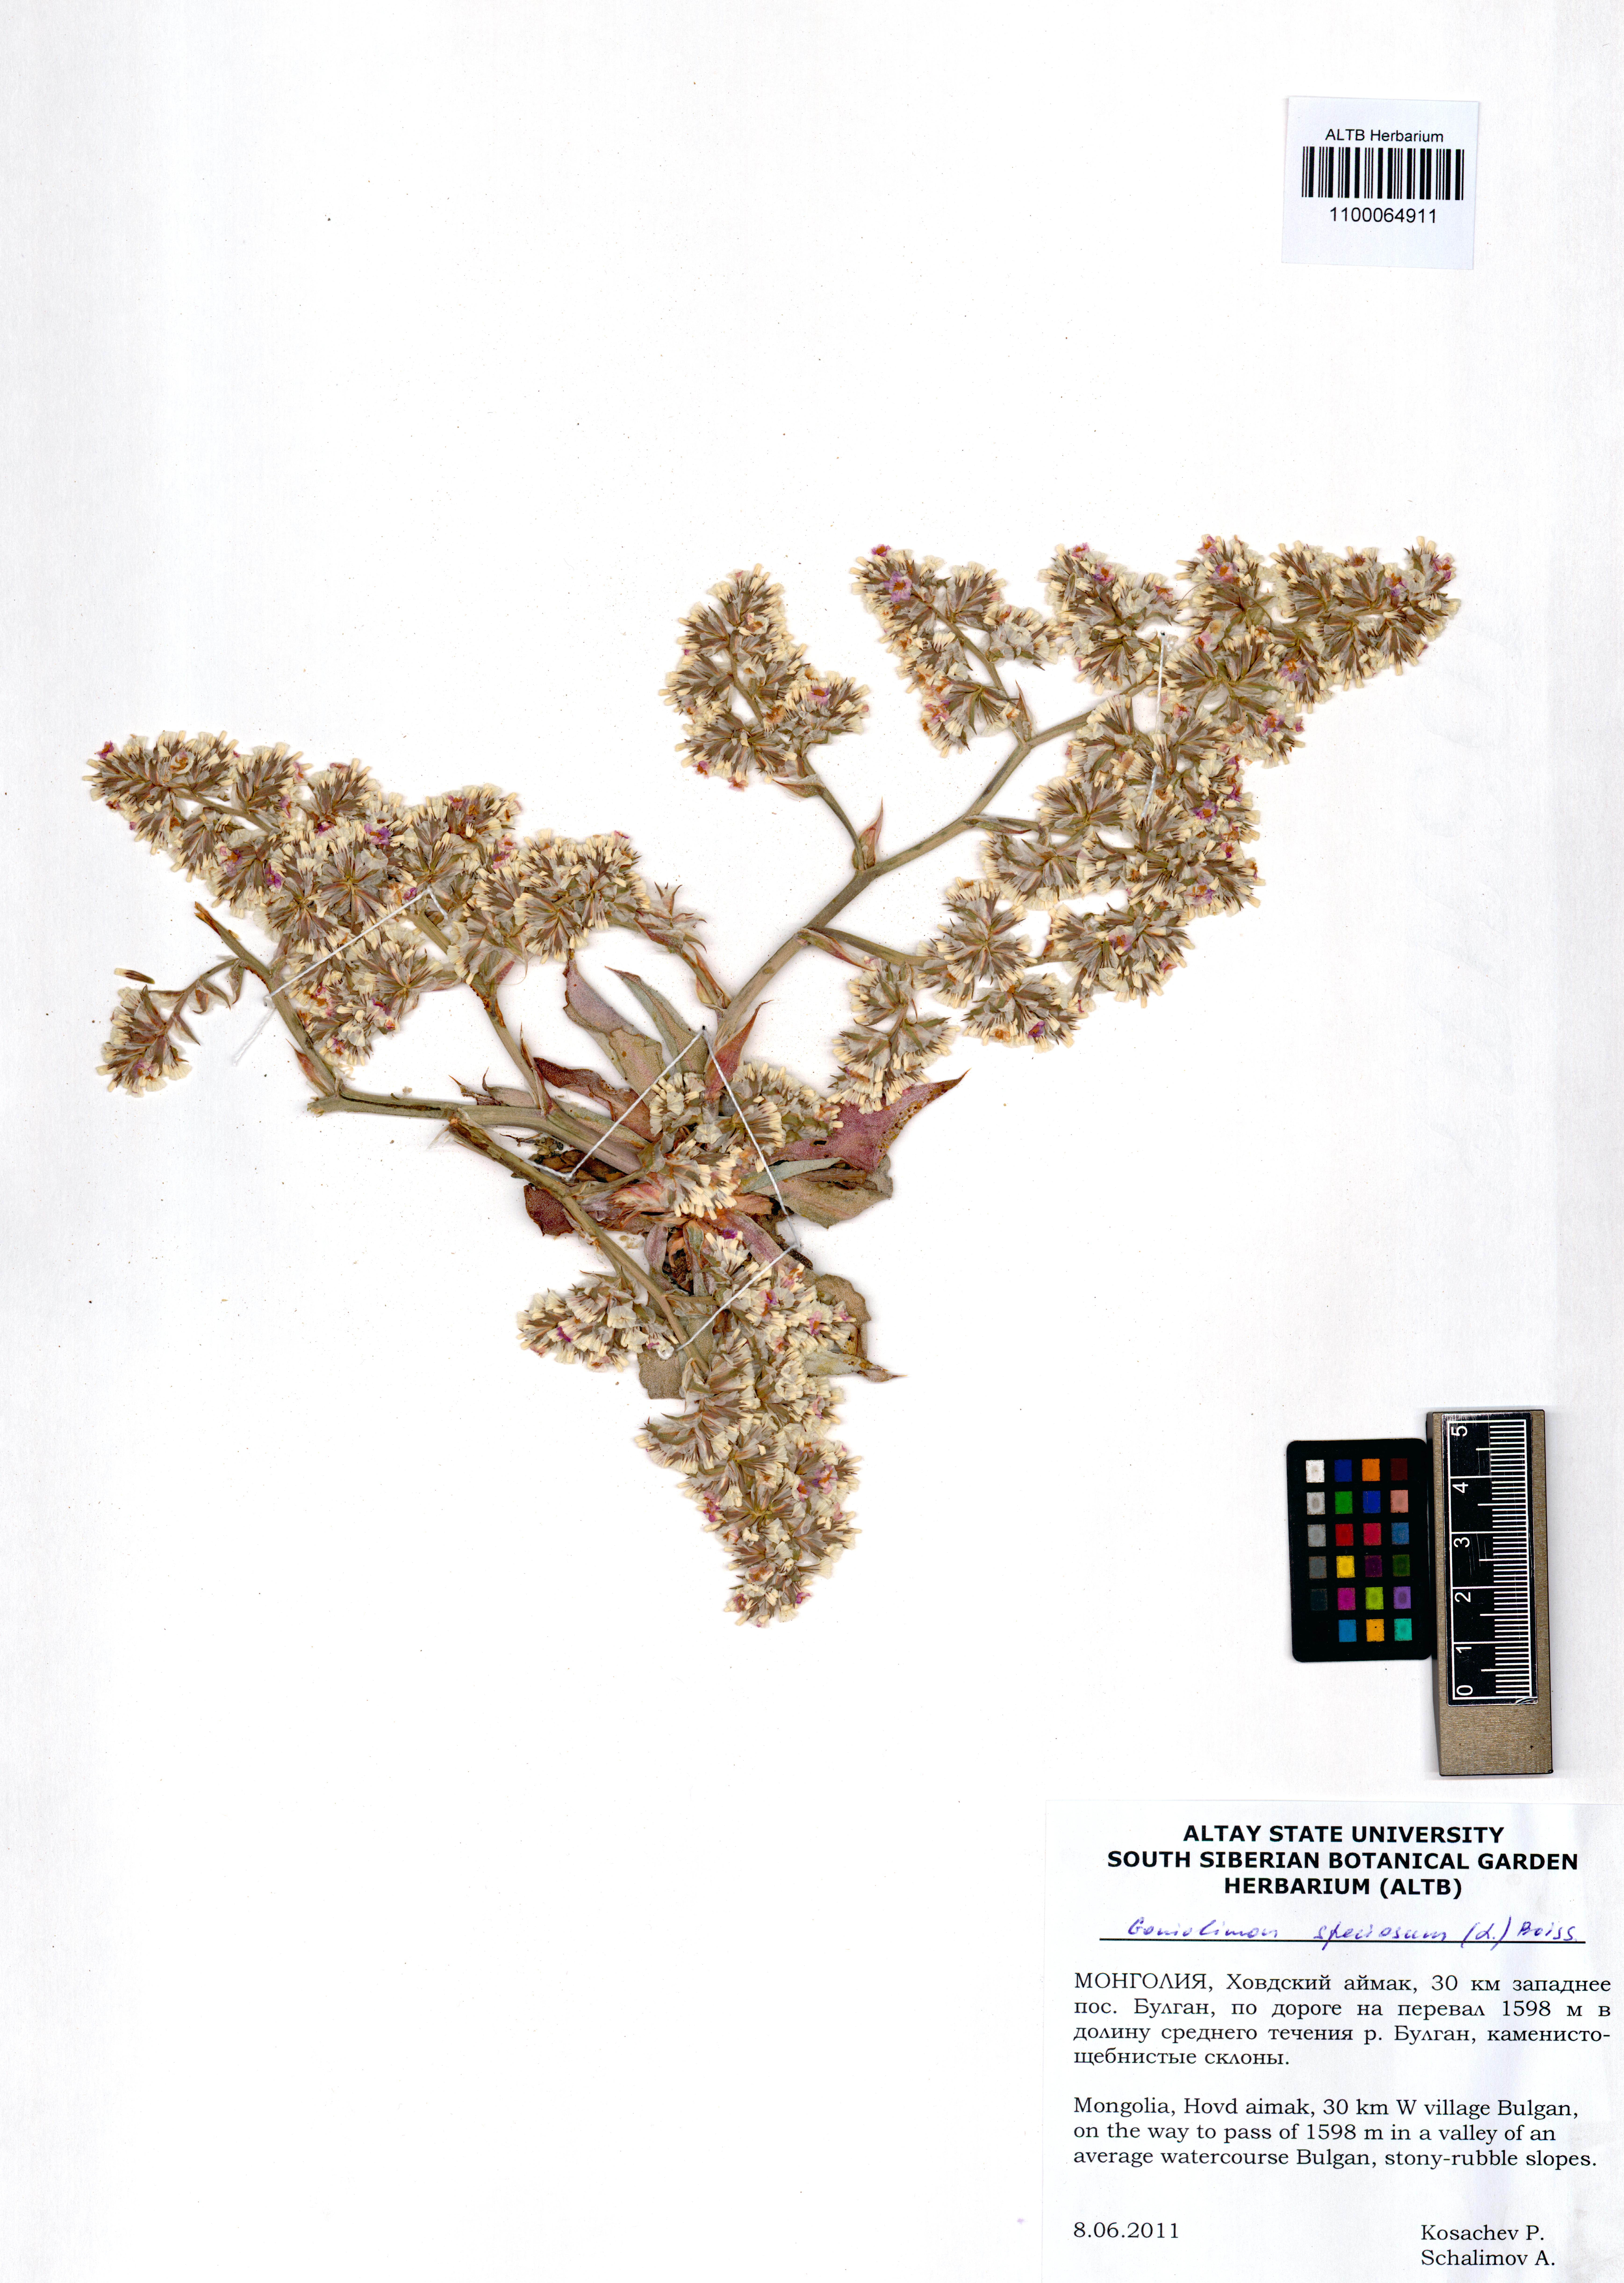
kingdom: Plantae
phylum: Tracheophyta
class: Magnoliopsida
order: Caryophyllales
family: Plumbaginaceae
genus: Goniolimon
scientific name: Goniolimon speciosum
